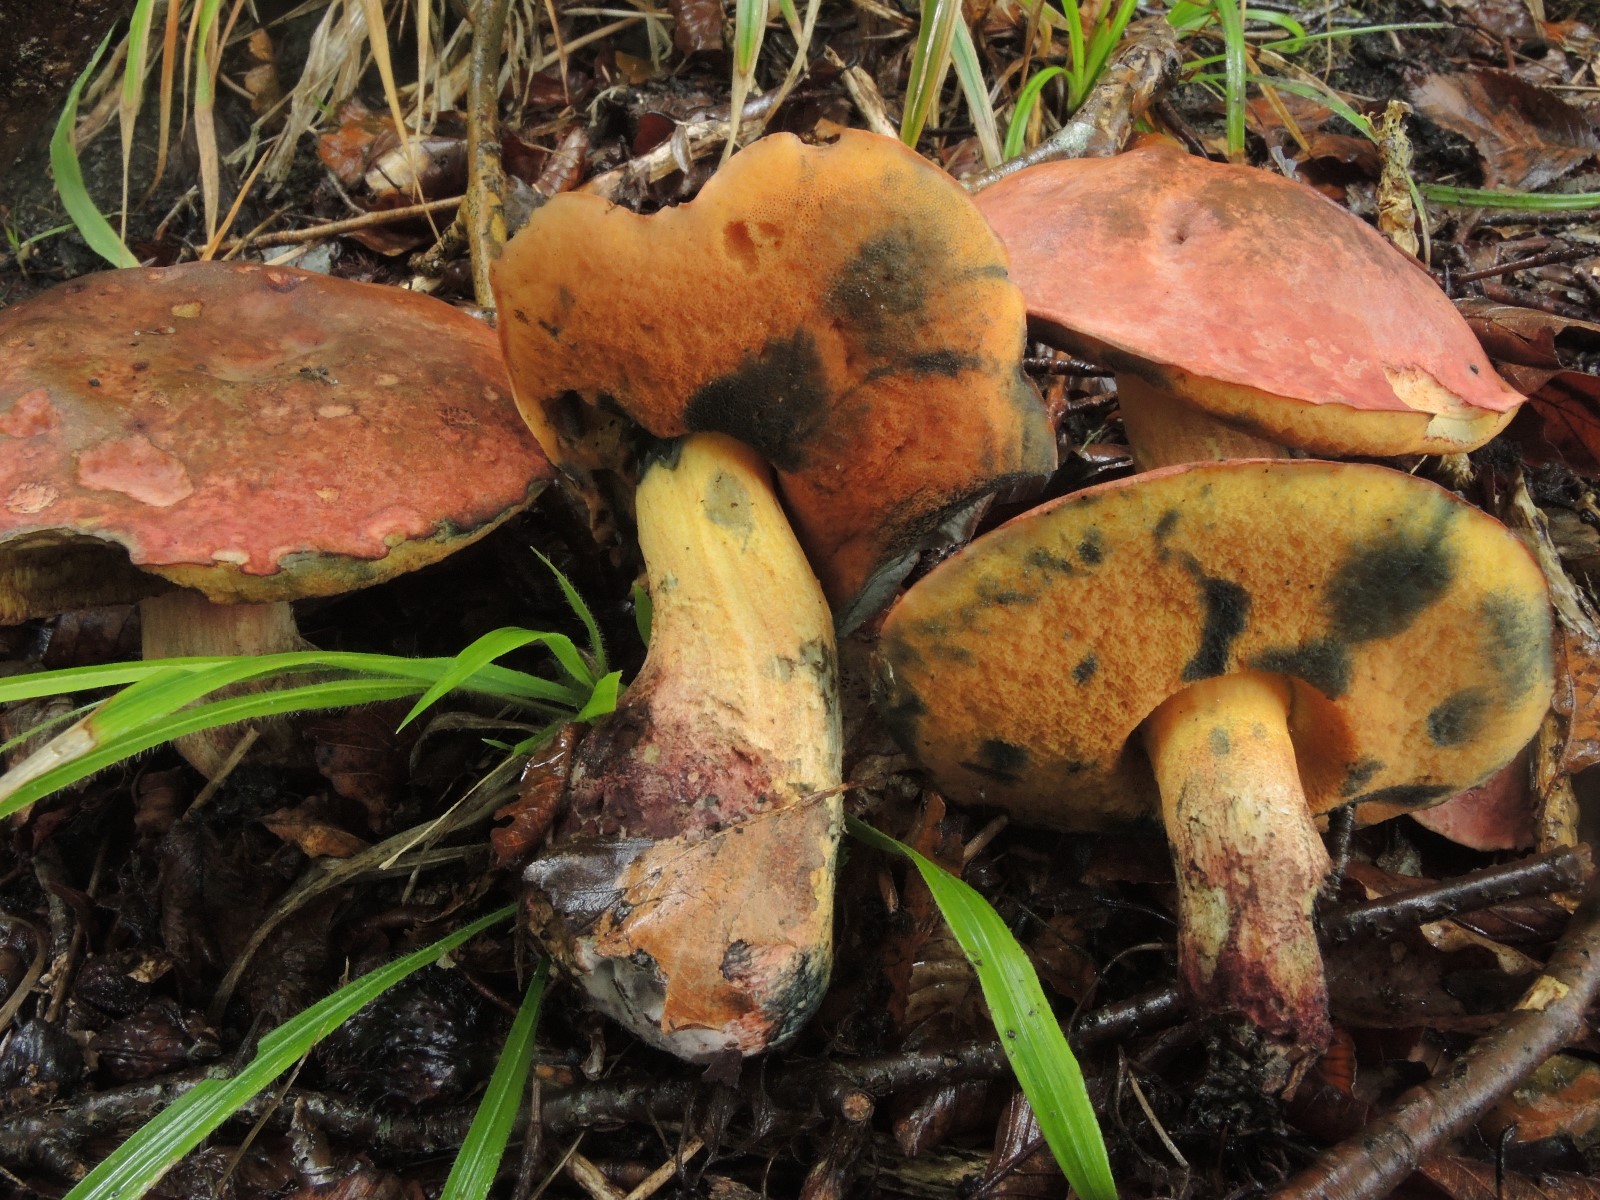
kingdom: Fungi
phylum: Basidiomycota
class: Agaricomycetes
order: Boletales
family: Boletaceae
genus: Suillellus
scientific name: Suillellus queletii
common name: glatstokket indigorørhat
